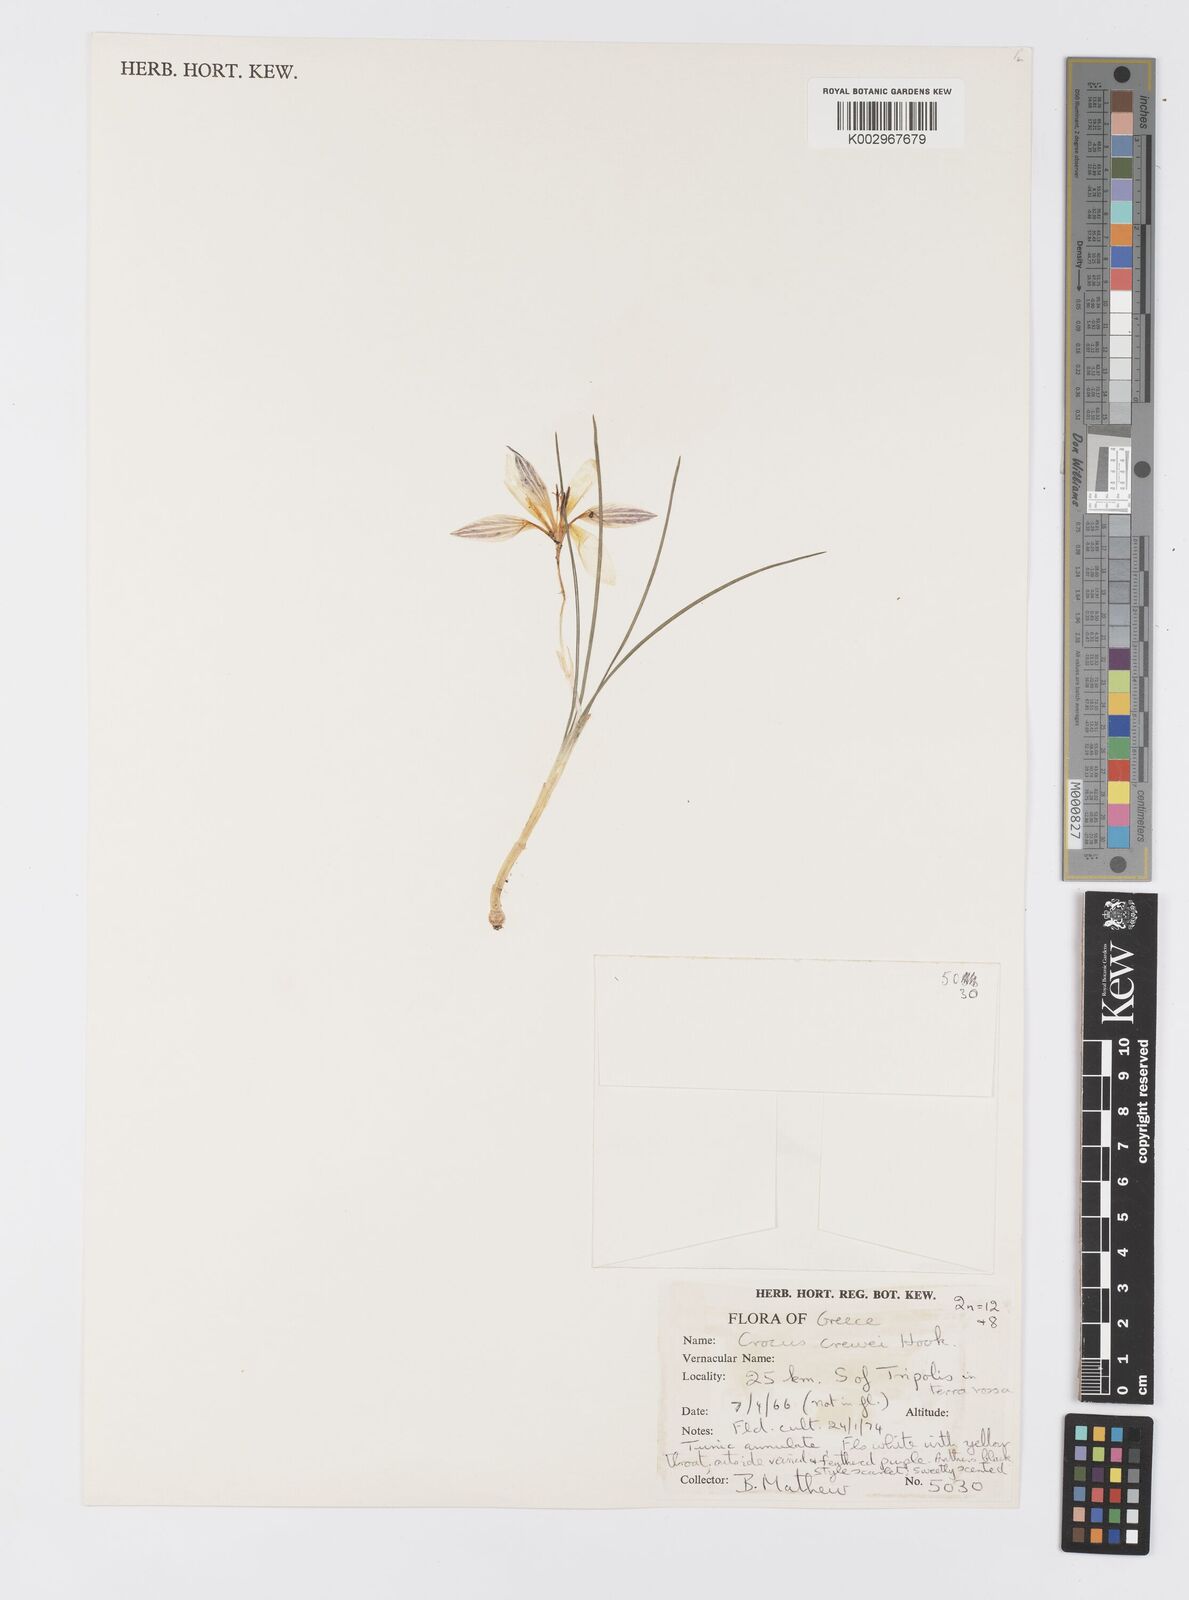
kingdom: Plantae
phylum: Tracheophyta
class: Liliopsida
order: Asparagales
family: Iridaceae
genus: Crocus
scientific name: Crocus melantherus
